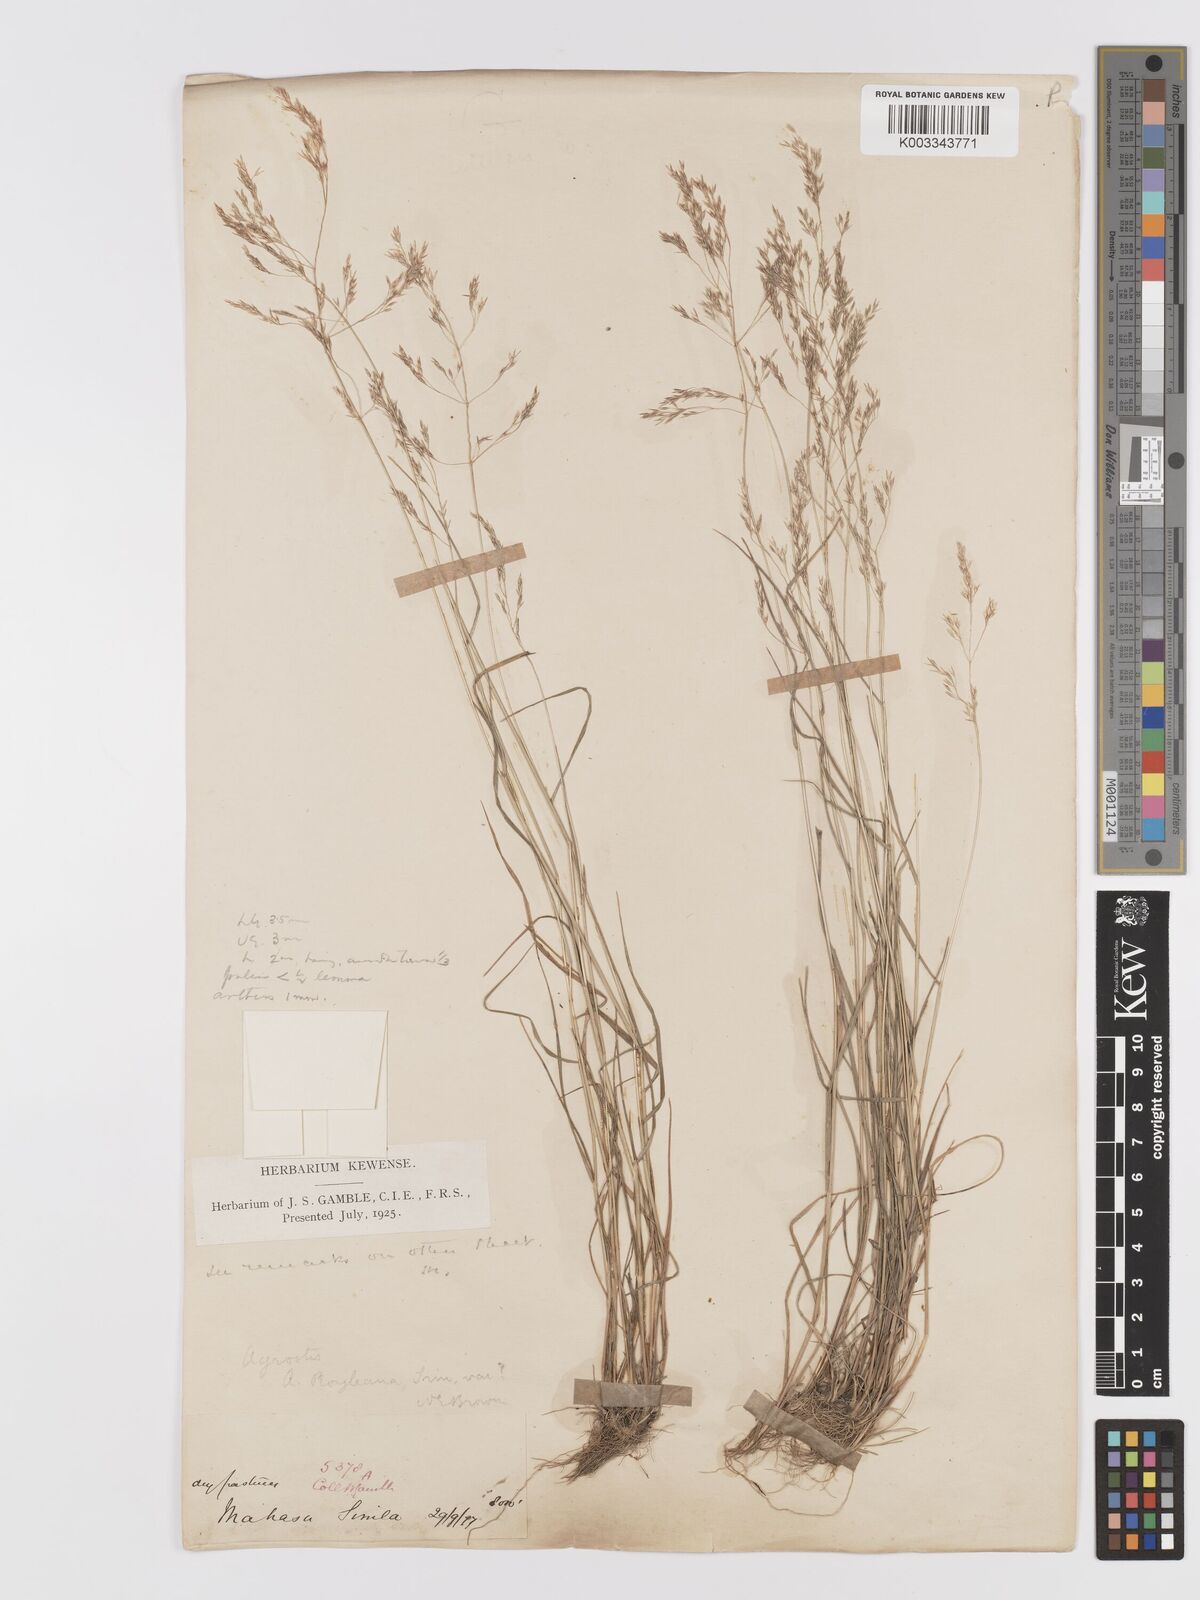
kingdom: Plantae
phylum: Tracheophyta
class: Liliopsida
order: Poales
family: Poaceae
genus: Agrostis
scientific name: Agrostis pilosula
